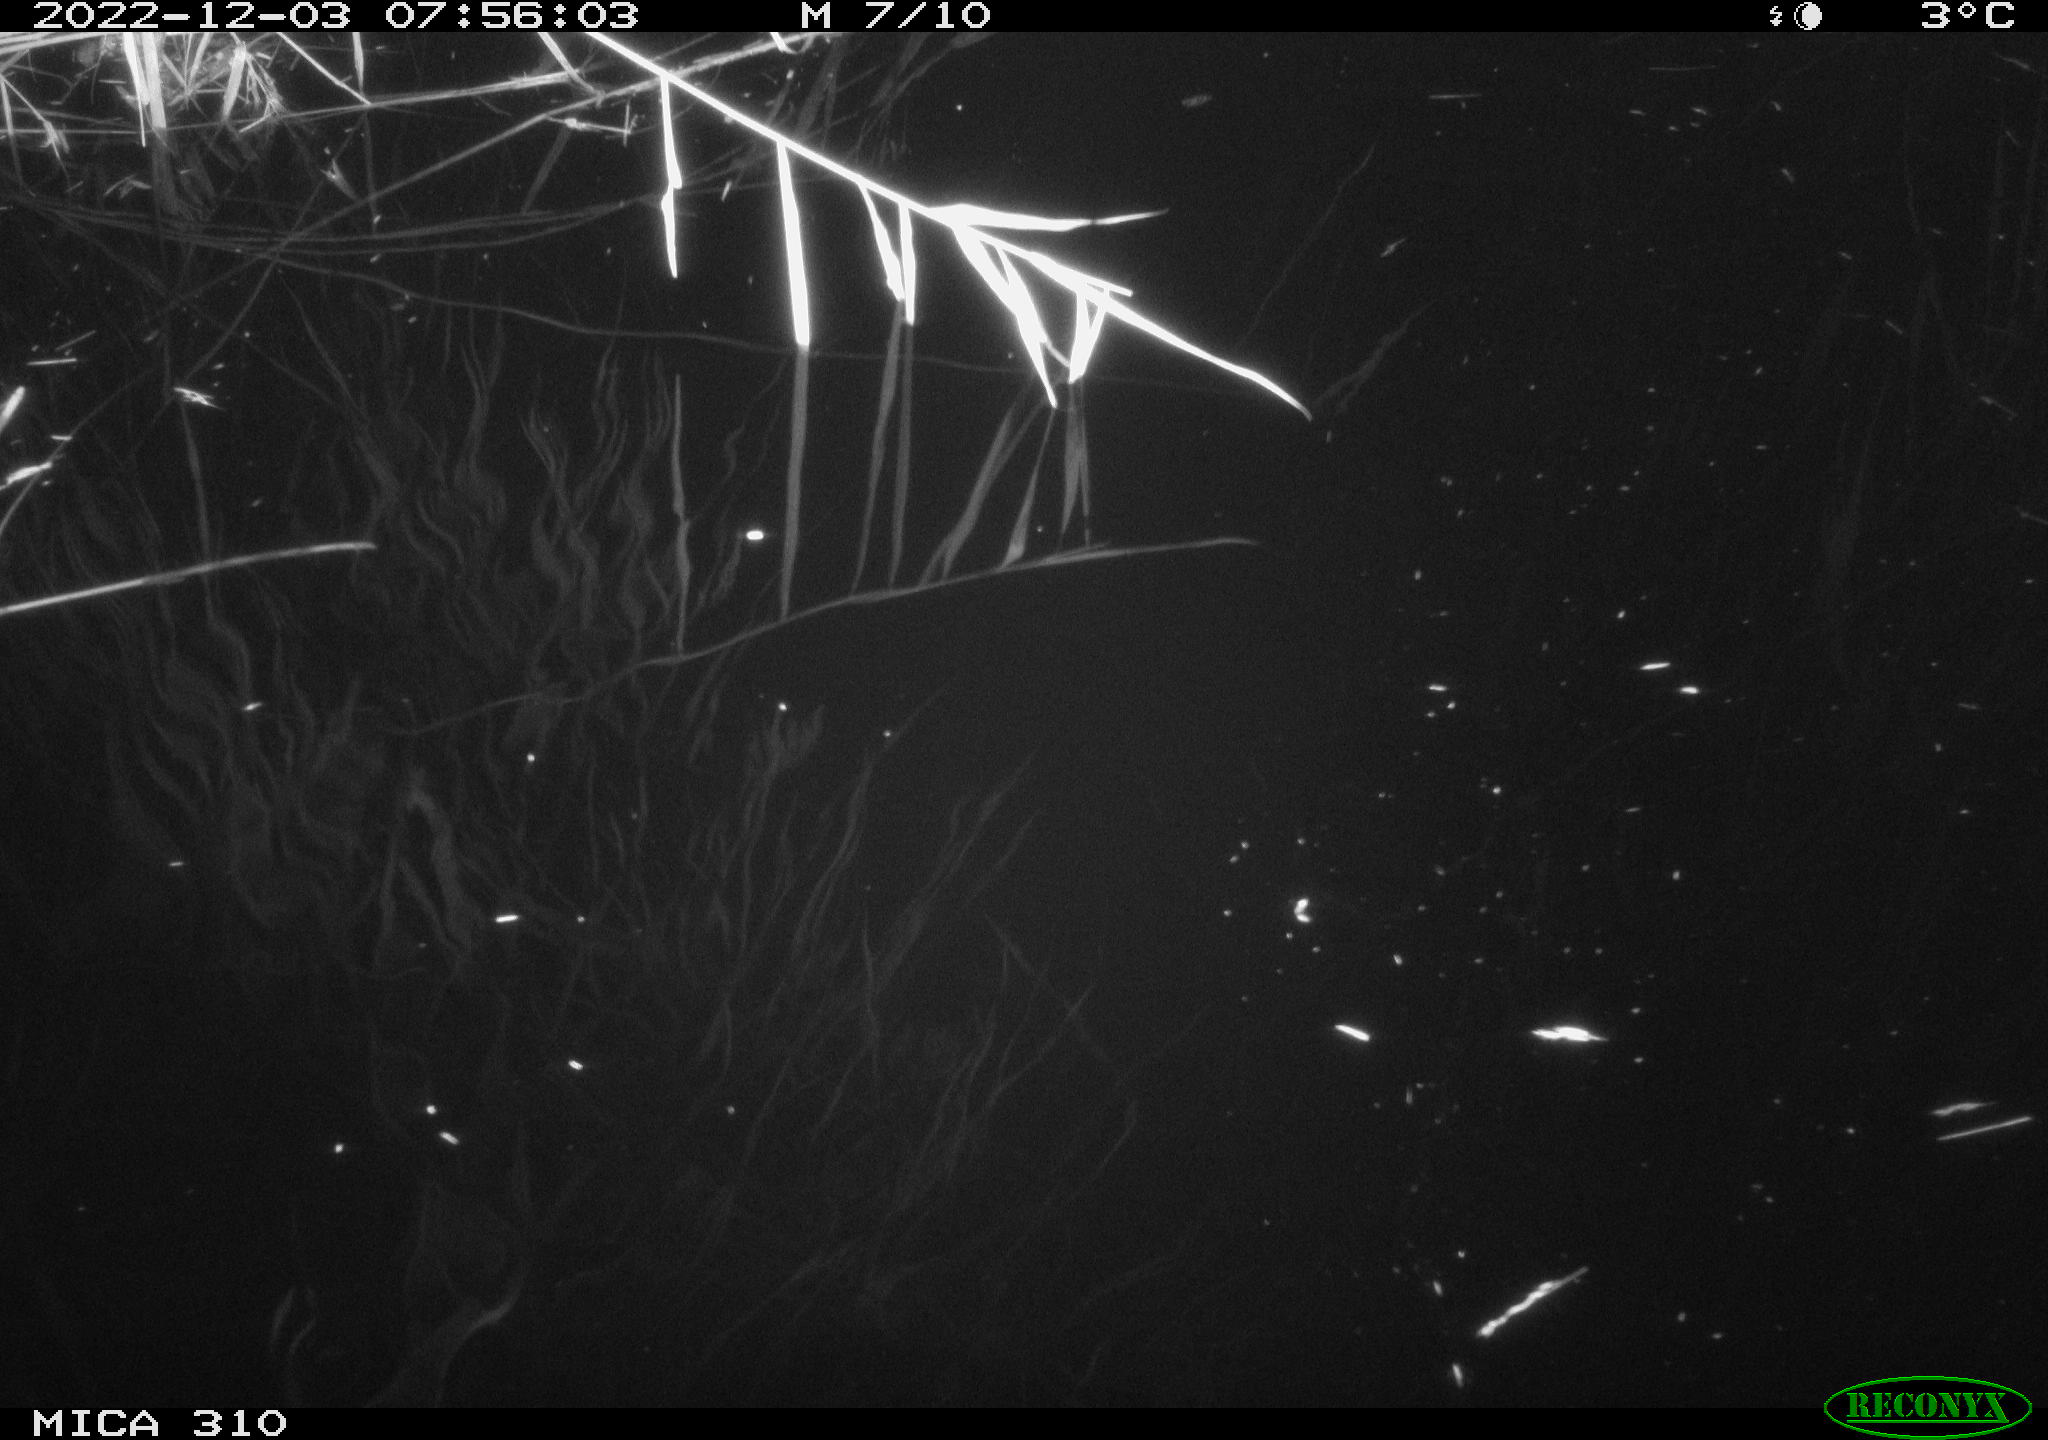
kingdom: Animalia
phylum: Chordata
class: Aves
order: Gruiformes
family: Rallidae
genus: Gallinula
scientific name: Gallinula chloropus
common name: Common moorhen
